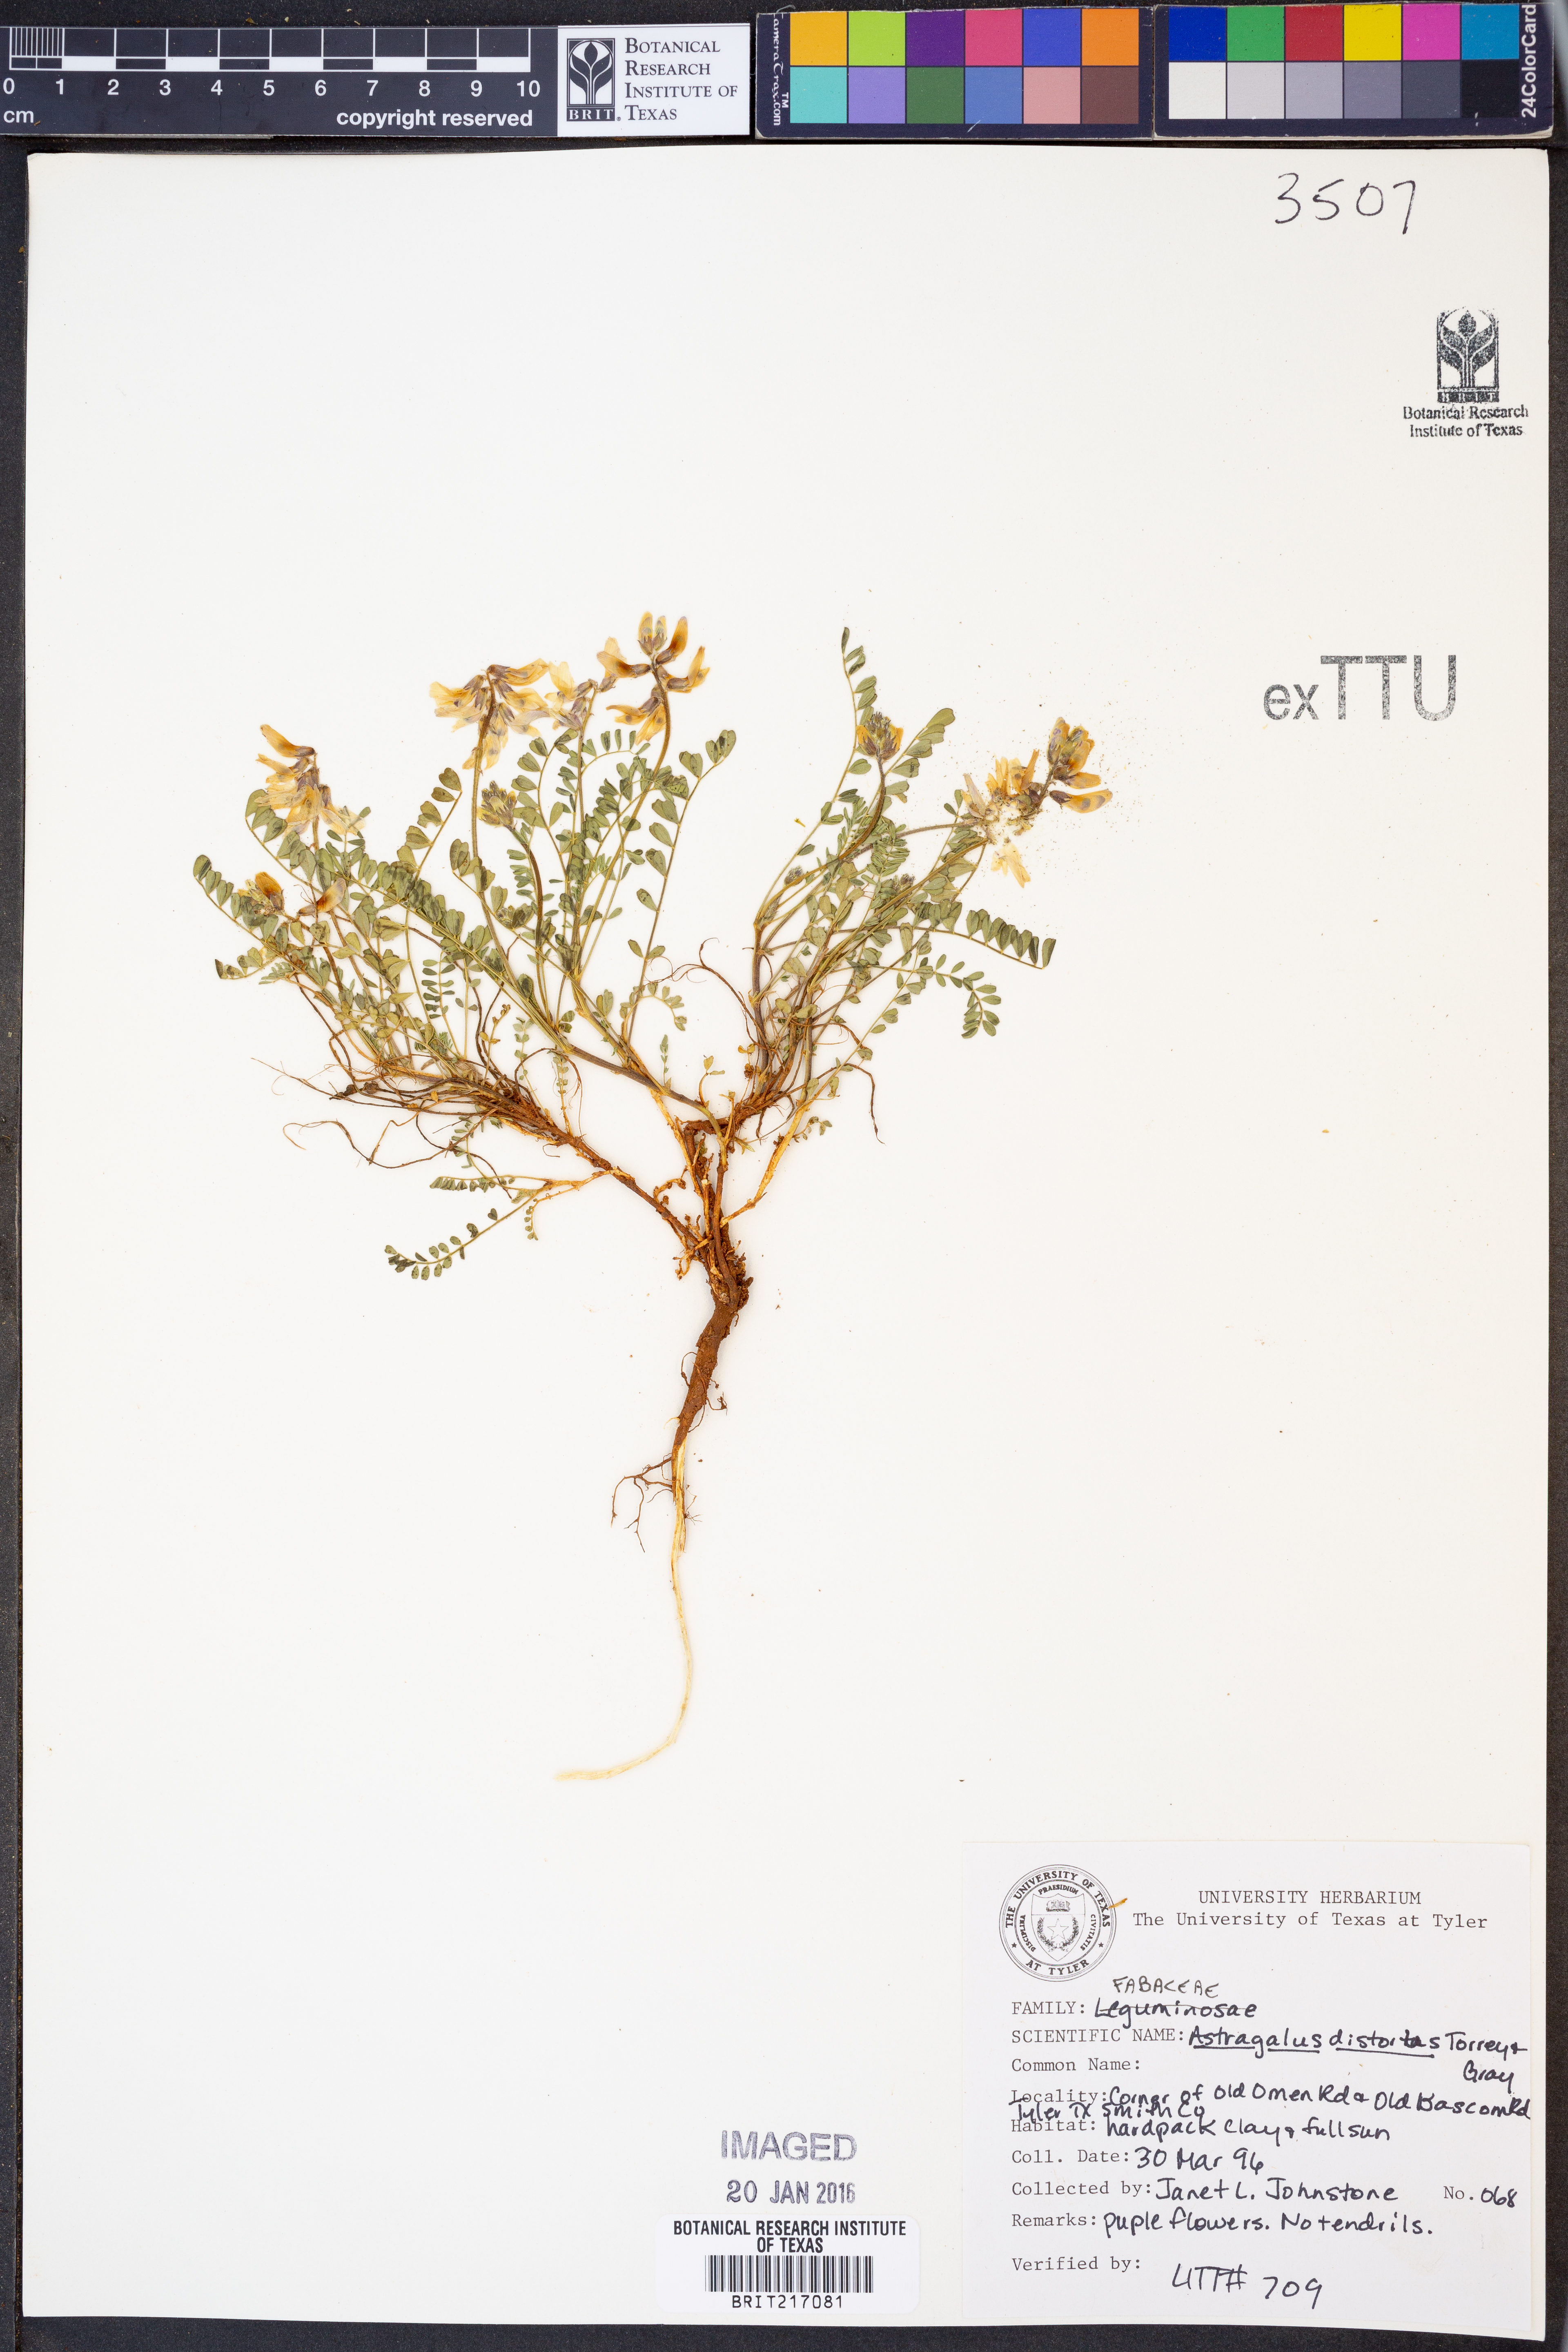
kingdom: Plantae
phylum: Tracheophyta
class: Magnoliopsida
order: Fabales
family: Fabaceae
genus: Astragalus
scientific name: Astragalus distortus
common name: Ozark milk-vetch
